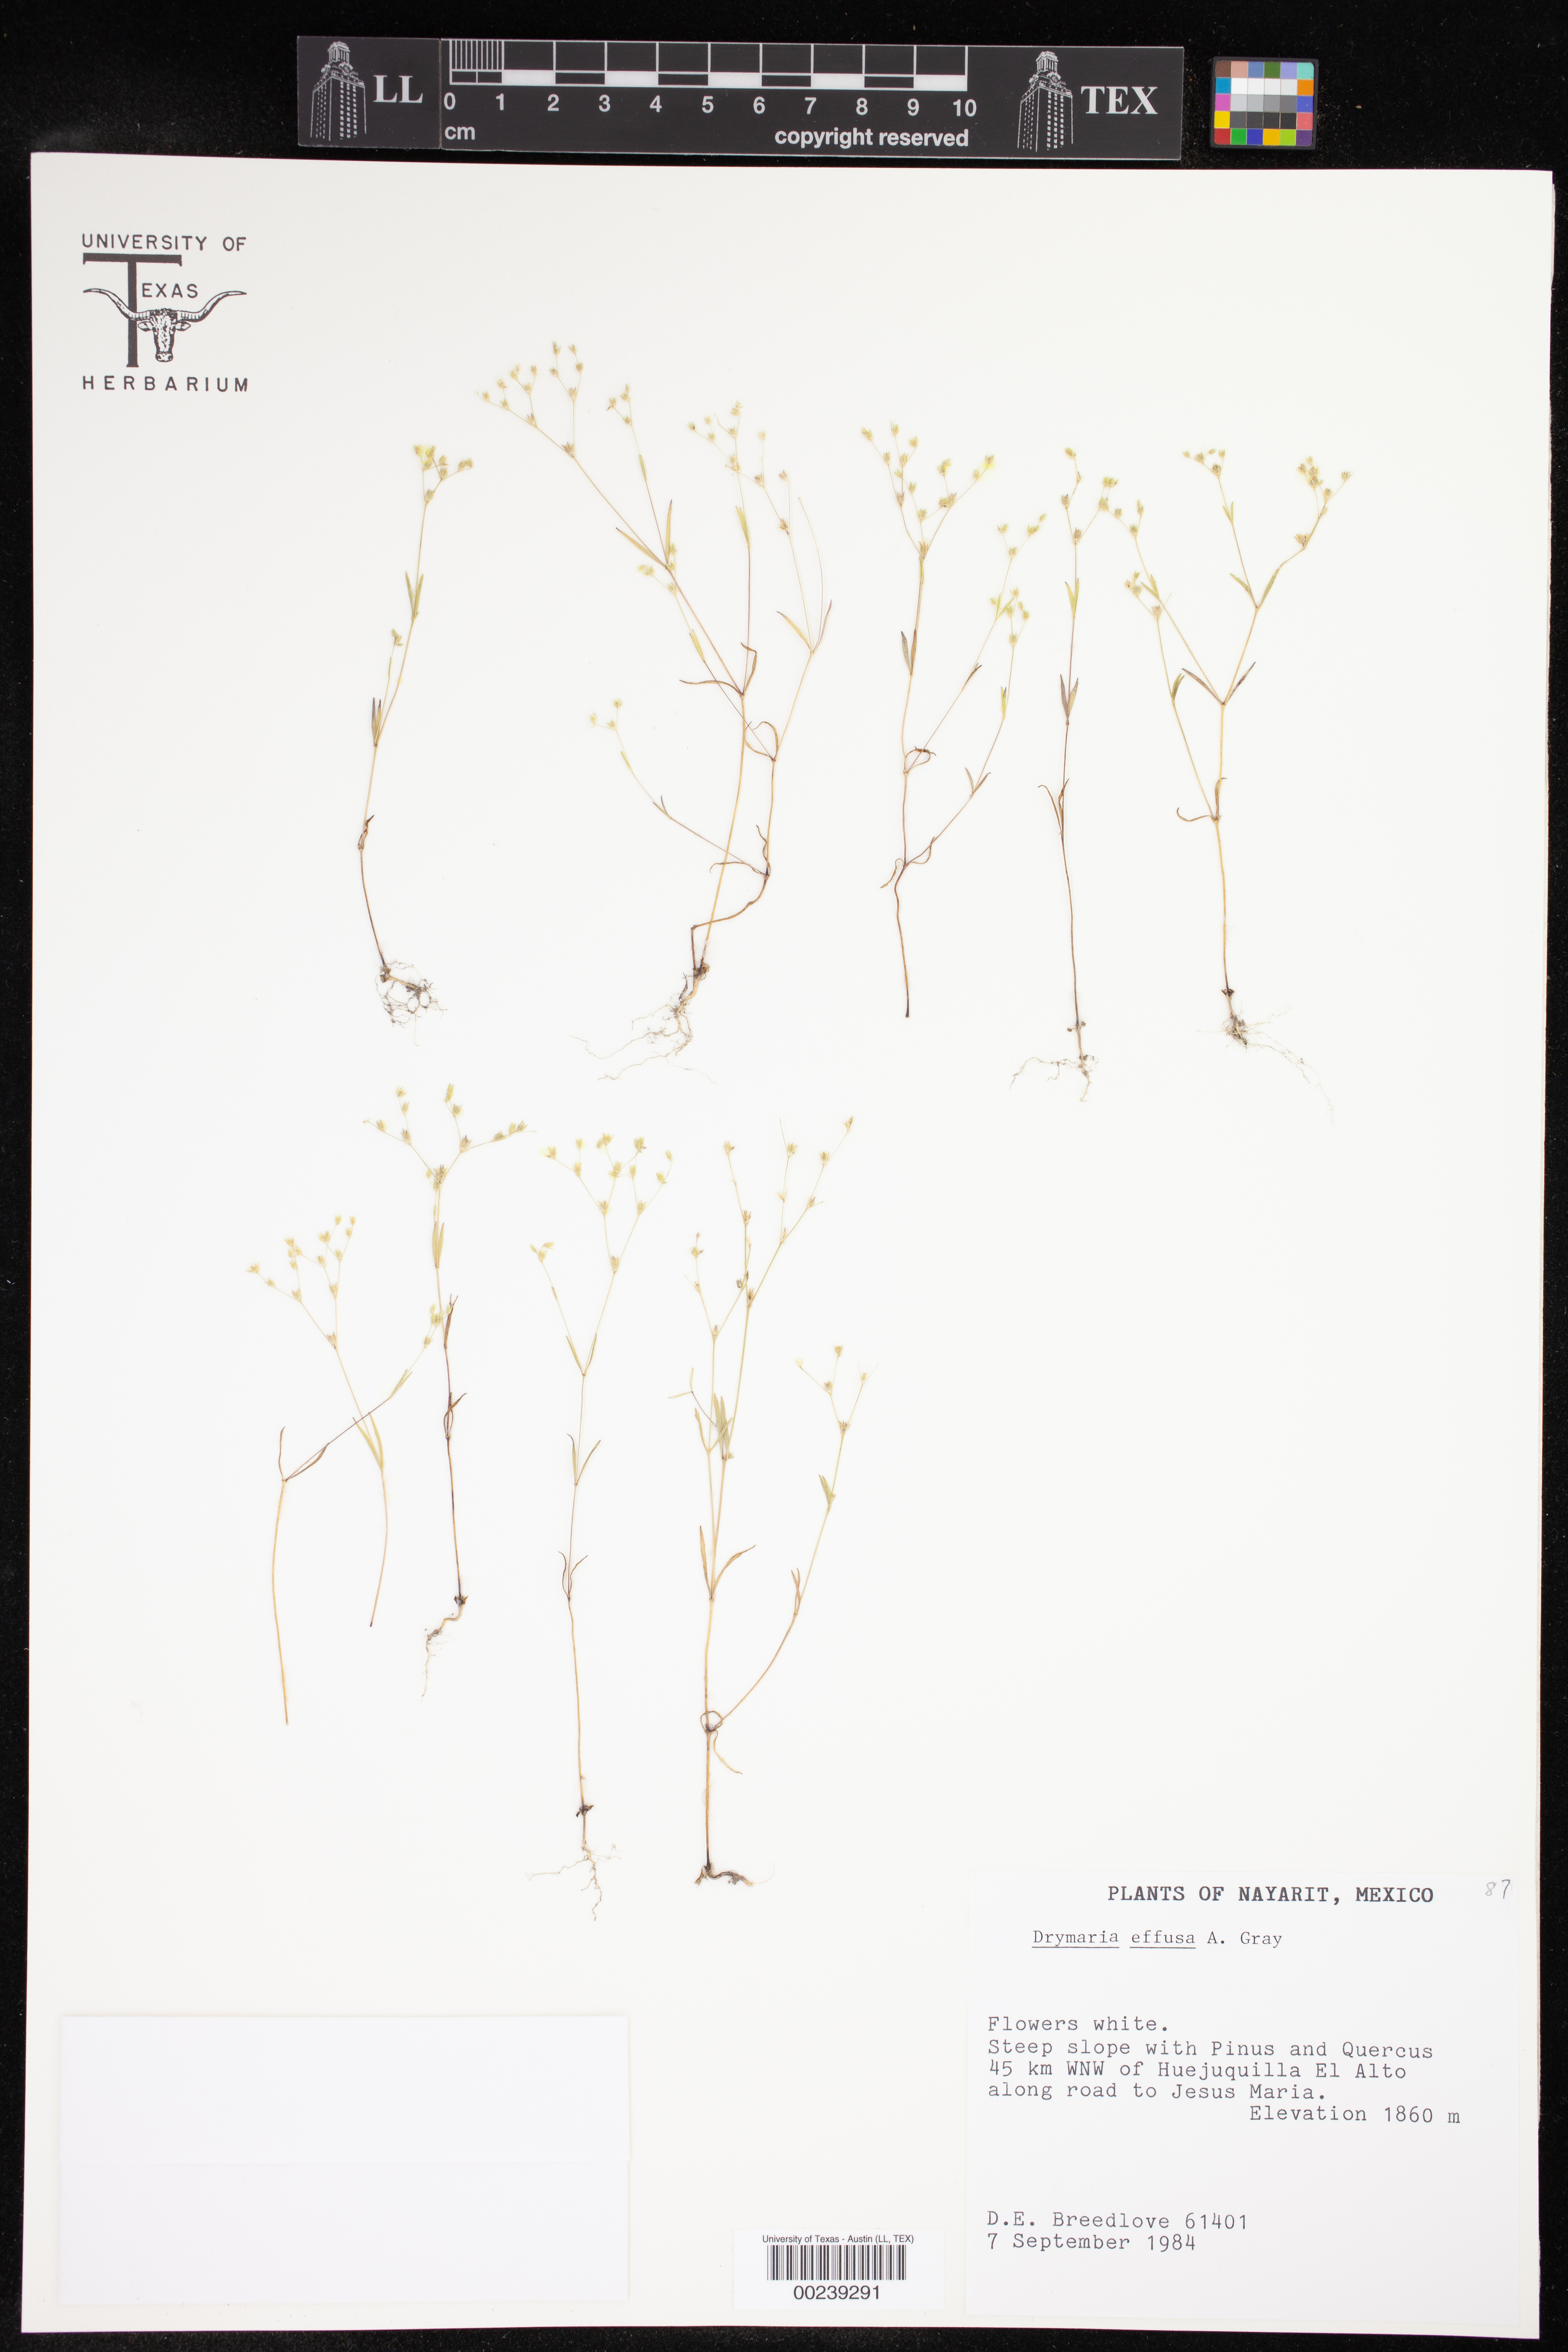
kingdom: Plantae
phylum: Tracheophyta
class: Magnoliopsida
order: Caryophyllales
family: Caryophyllaceae
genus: Drymaria
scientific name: Drymaria effusa
